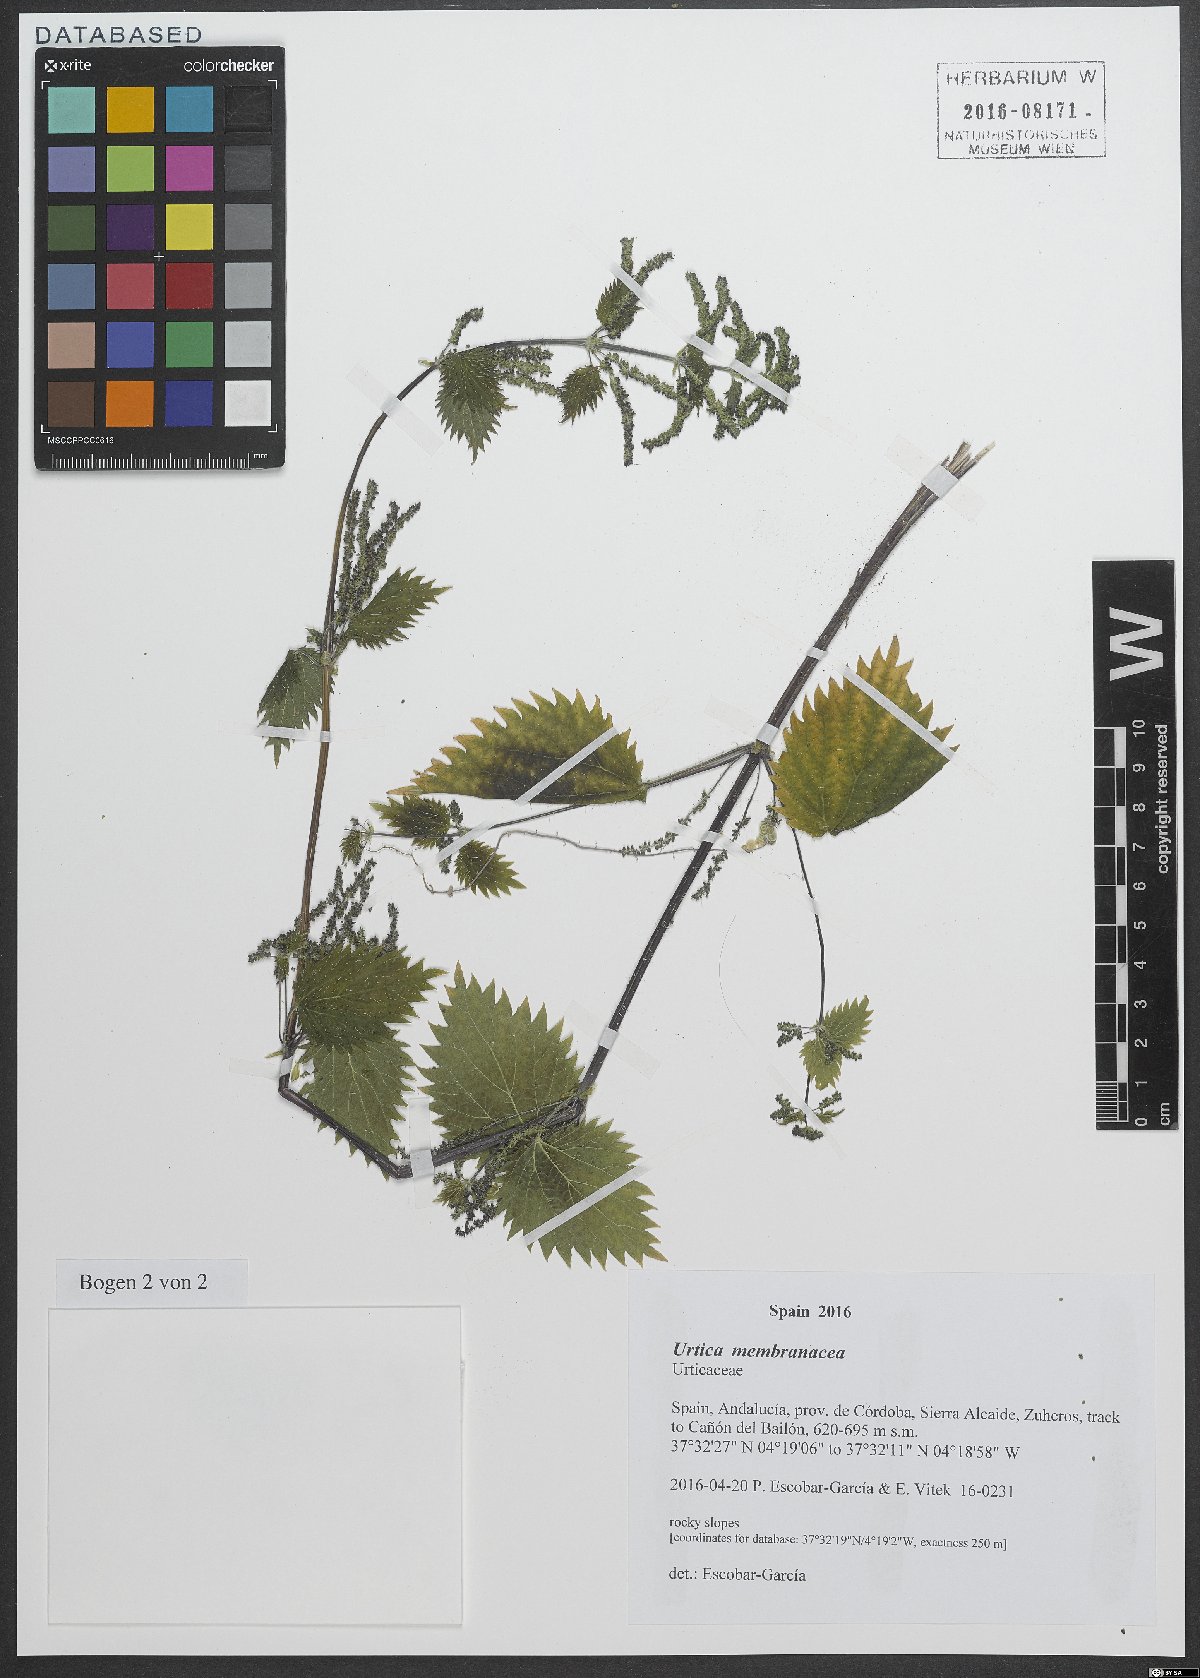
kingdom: Plantae
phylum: Tracheophyta
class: Magnoliopsida
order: Rosales
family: Urticaceae
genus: Urtica
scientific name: Urtica membranacea
